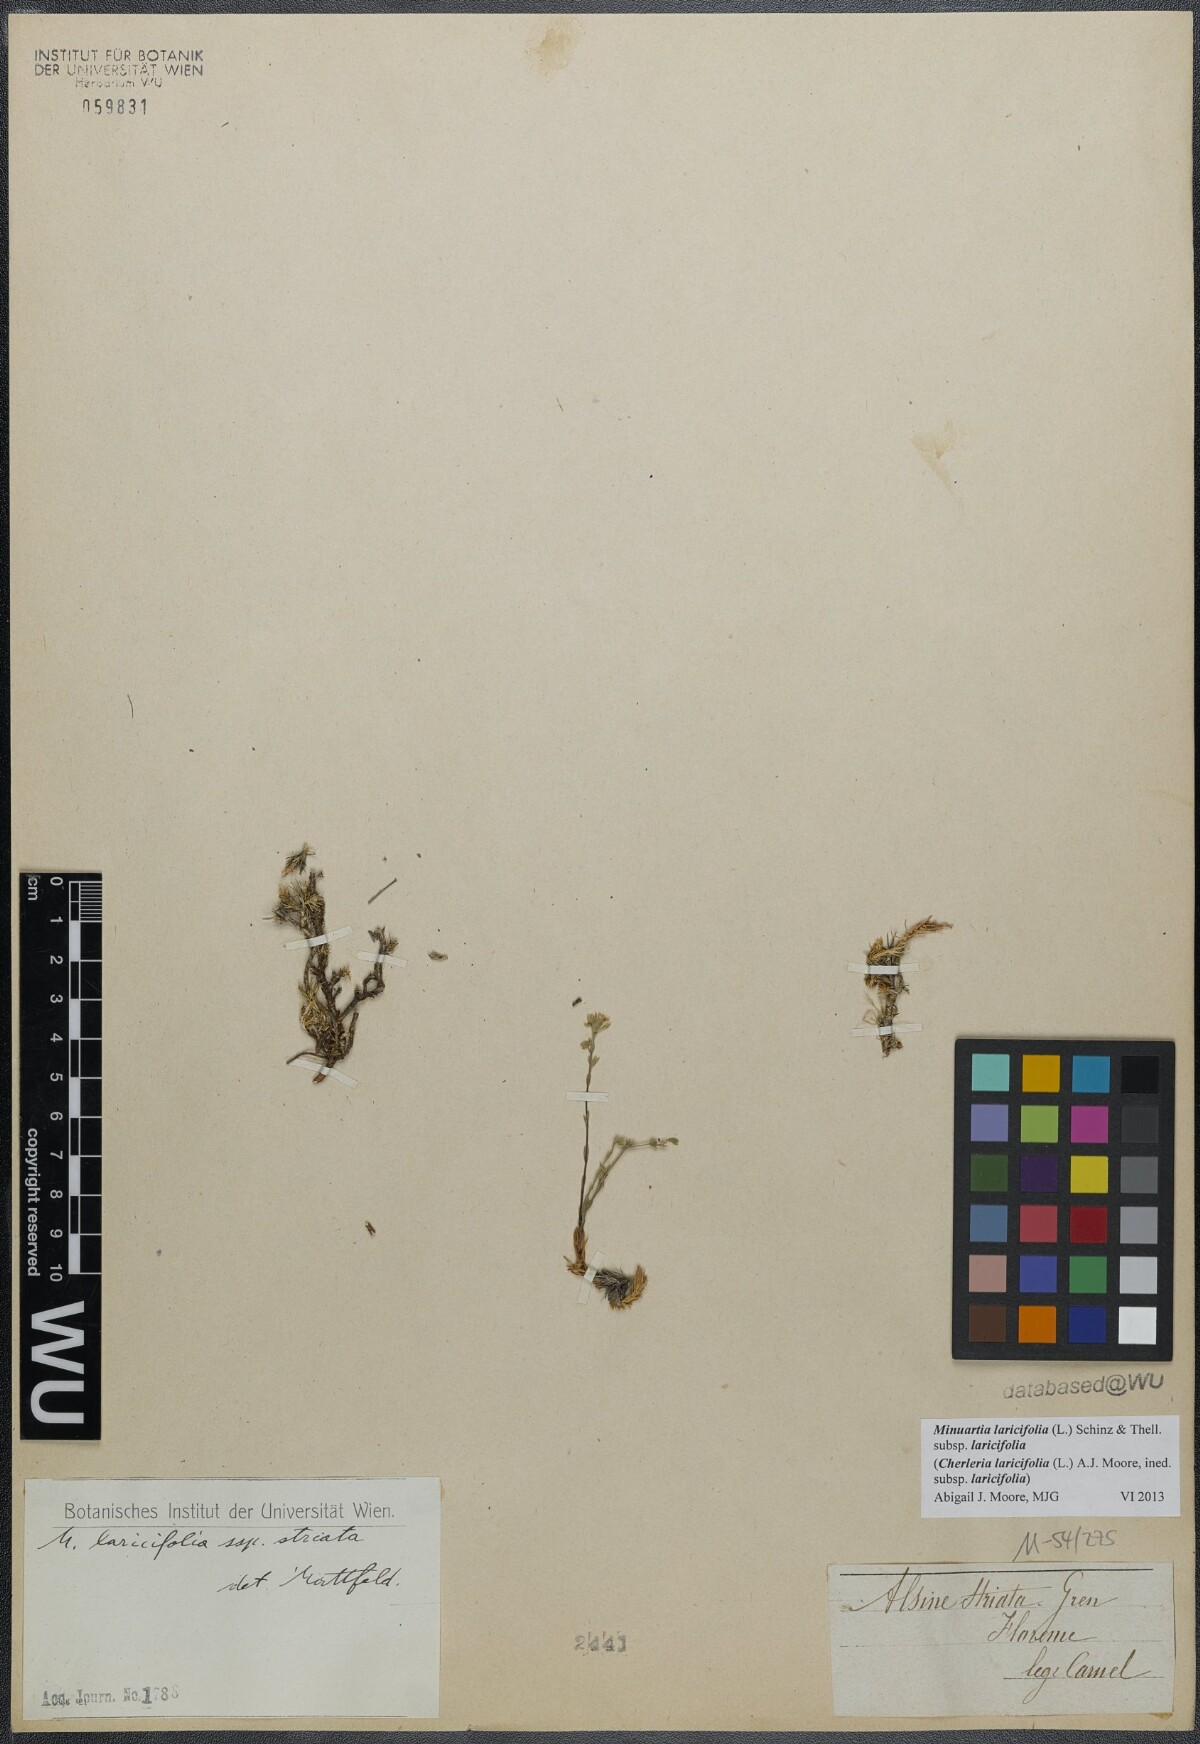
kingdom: Plantae
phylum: Tracheophyta
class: Magnoliopsida
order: Caryophyllales
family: Caryophyllaceae
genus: Cherleria
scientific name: Cherleria laricifolia
